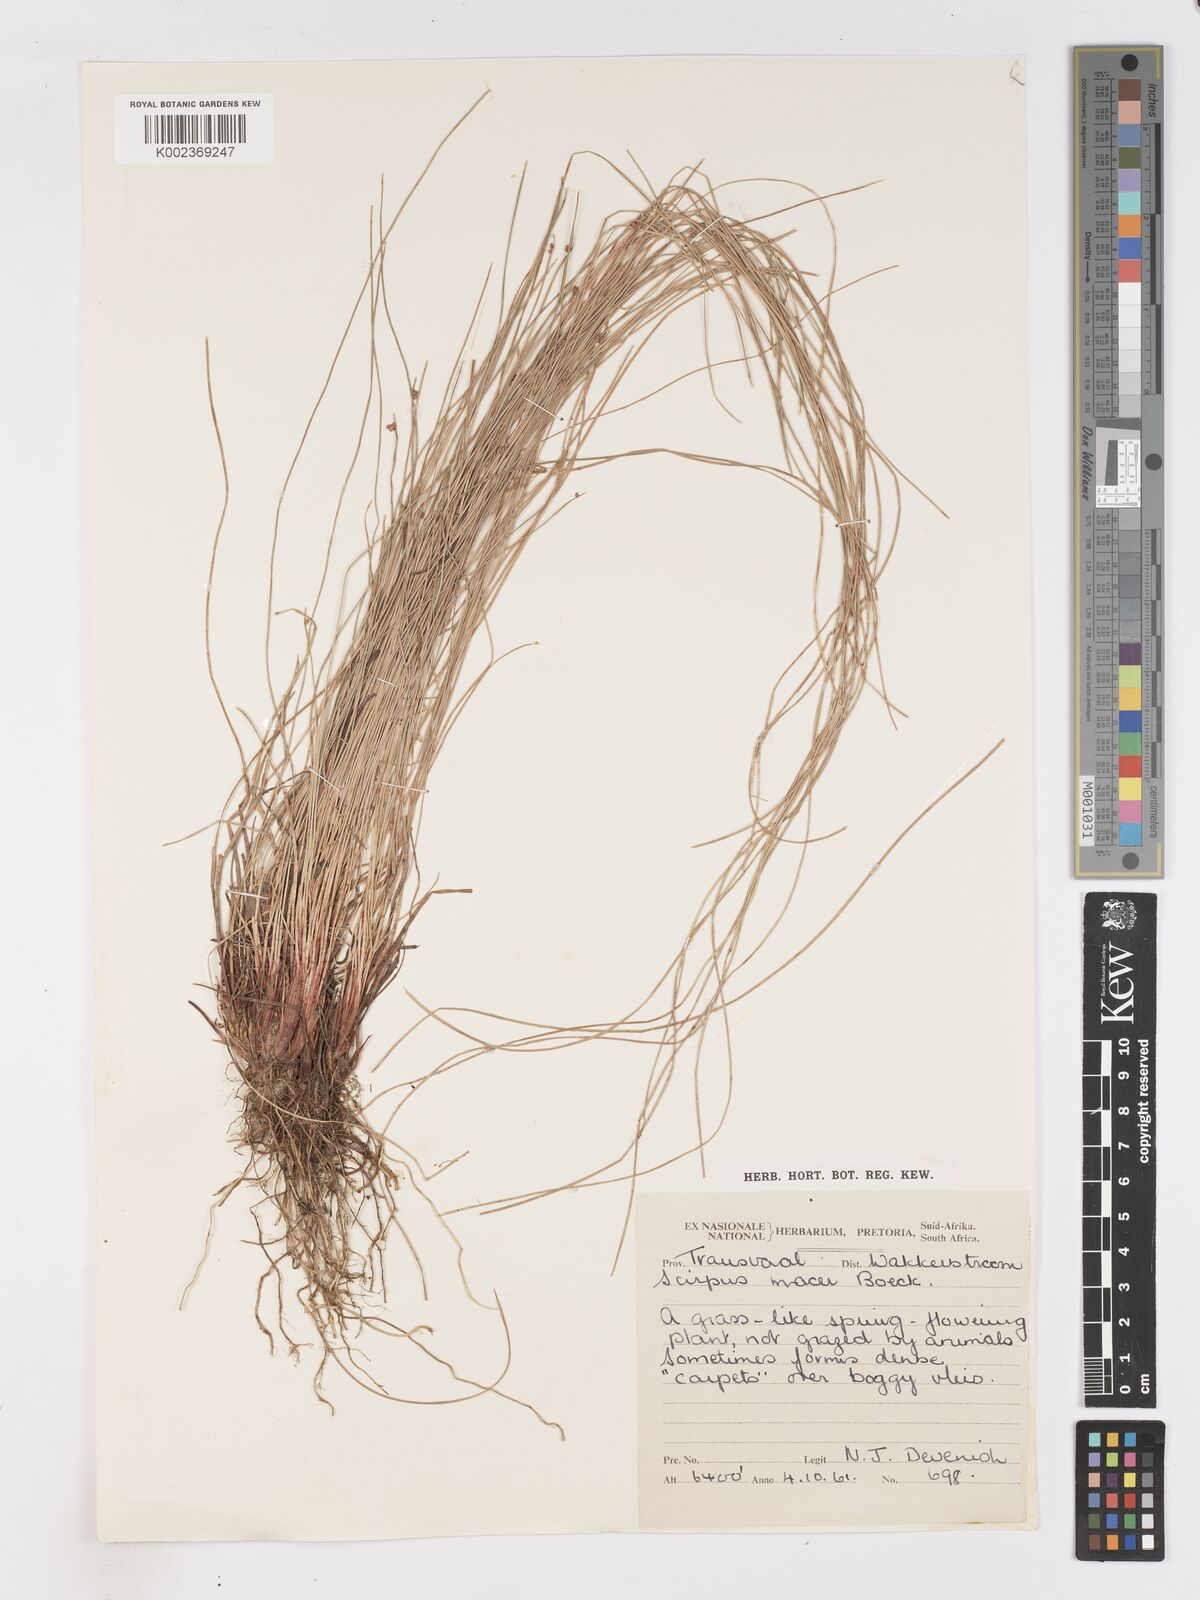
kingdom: Plantae
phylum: Tracheophyta
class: Liliopsida
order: Poales
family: Cyperaceae
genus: Isolepis
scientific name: Isolepis costata
